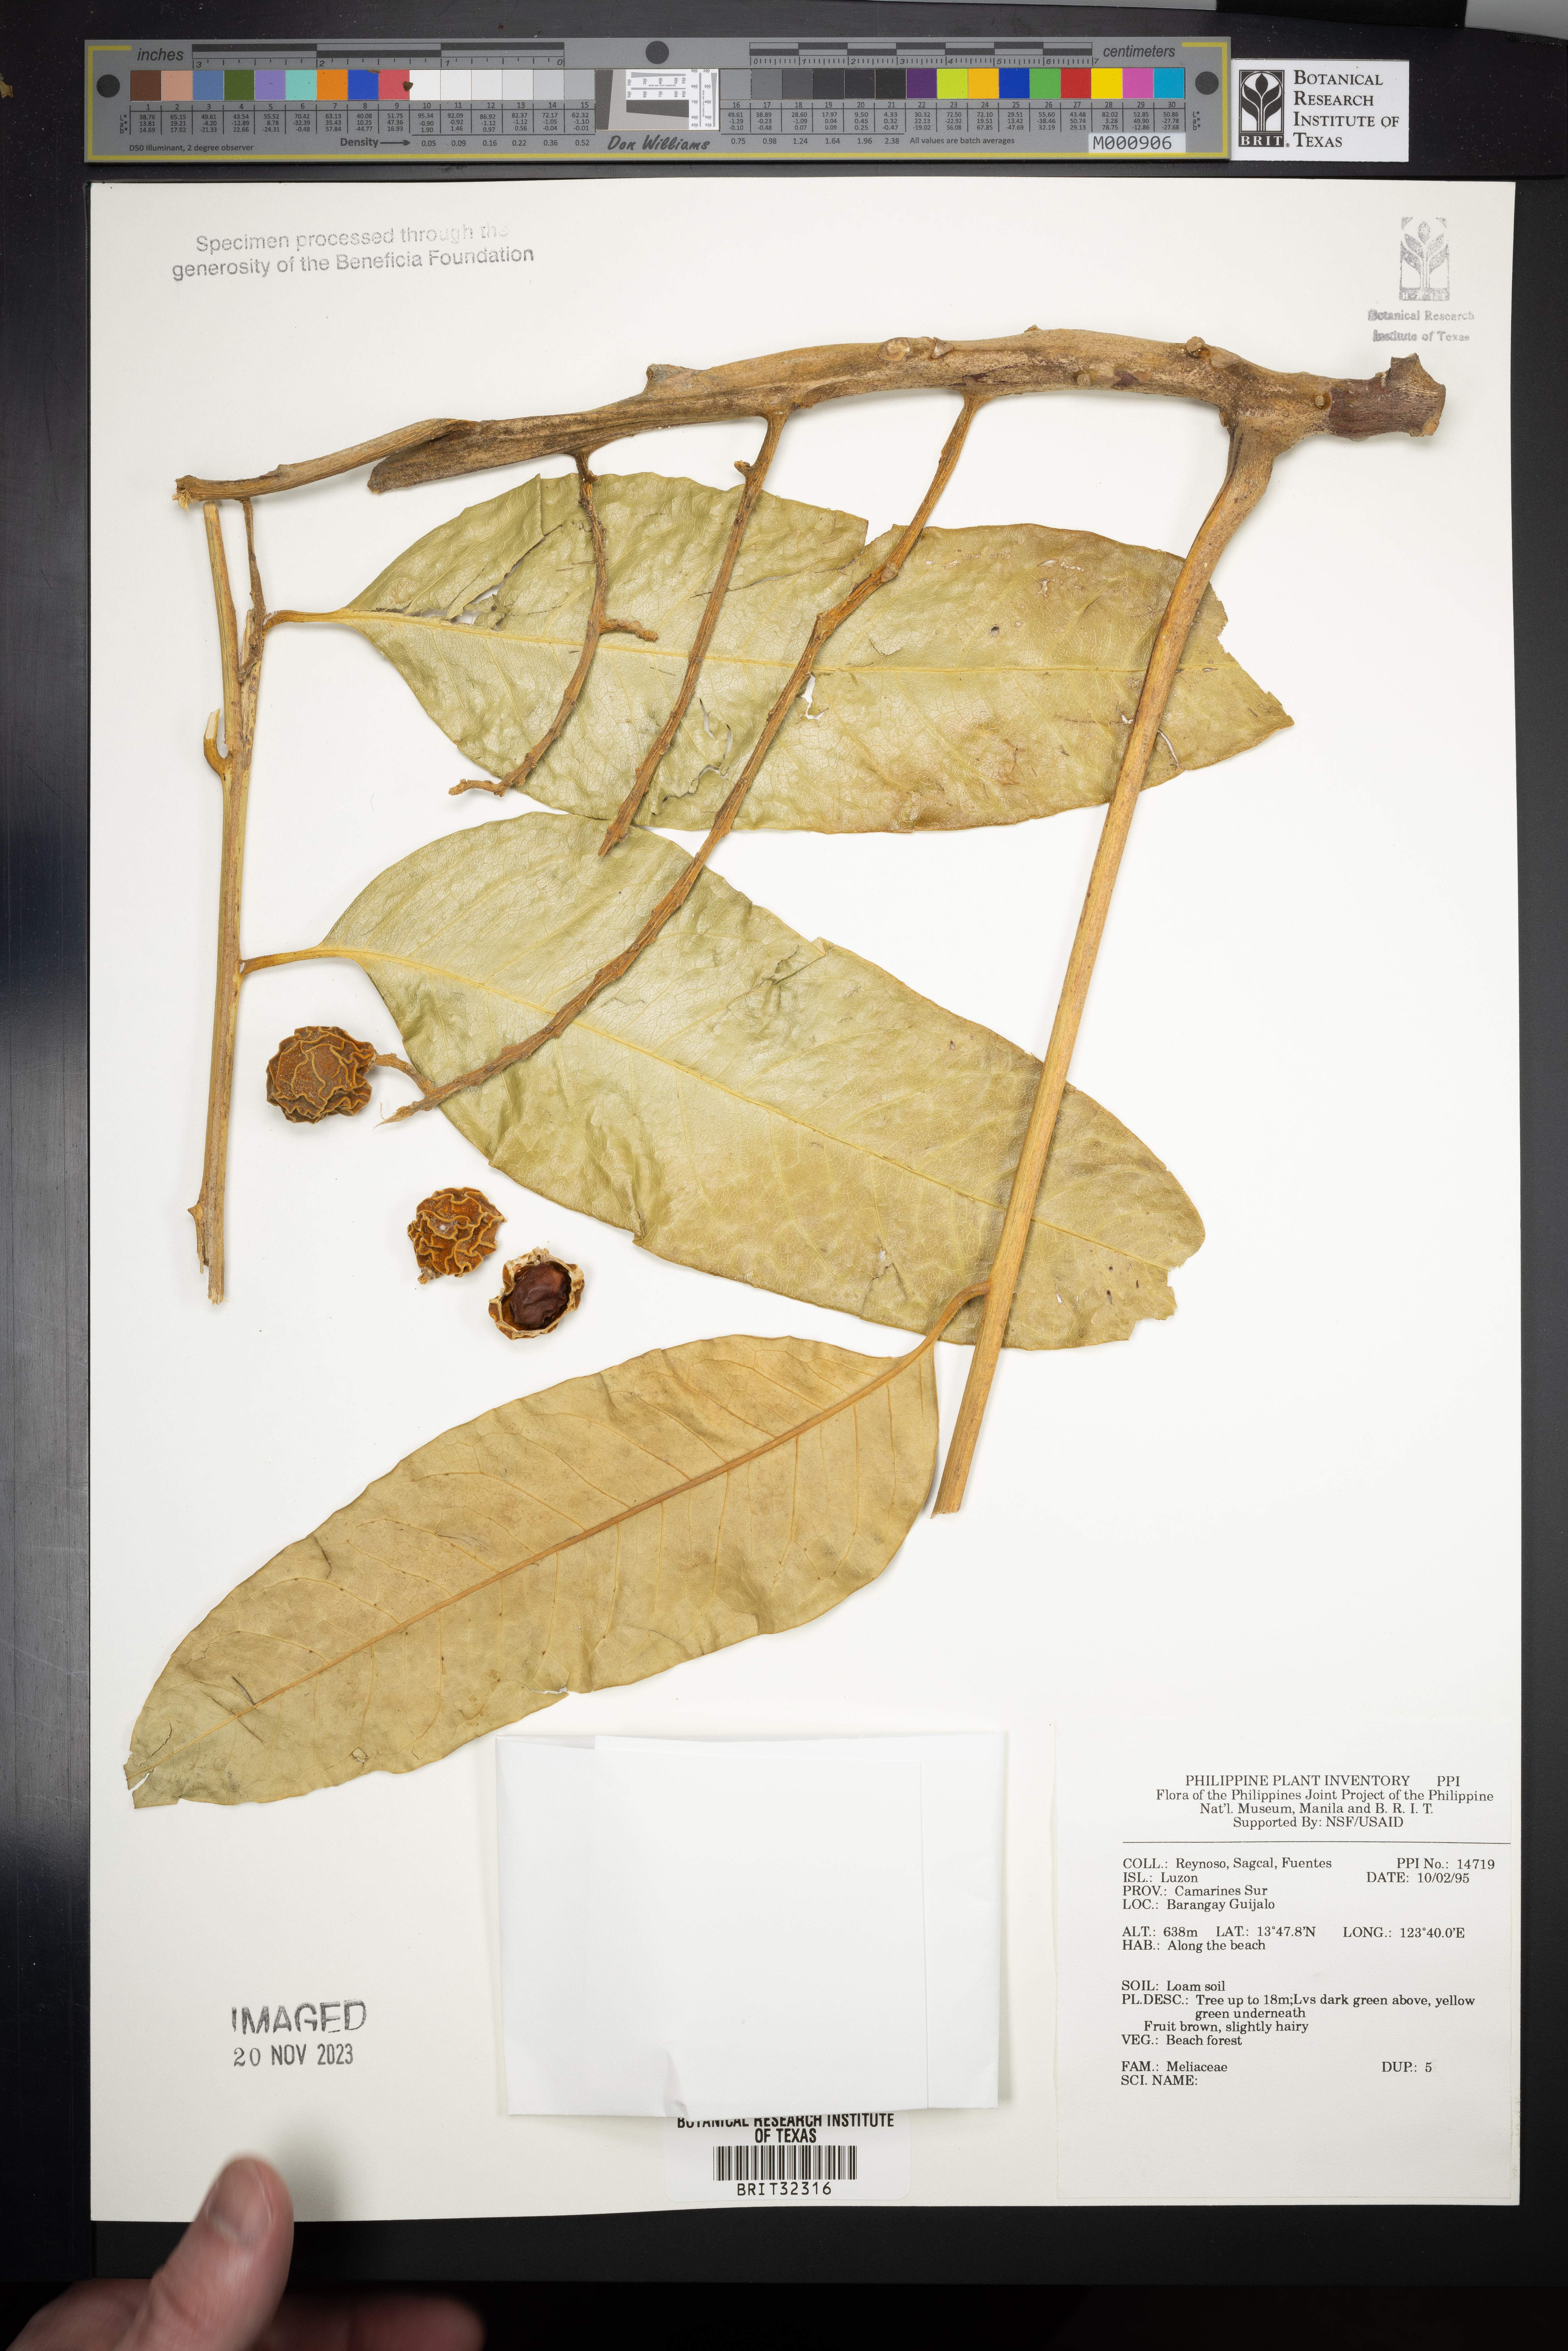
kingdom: Plantae
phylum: Tracheophyta
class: Magnoliopsida
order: Sapindales
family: Meliaceae
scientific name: Meliaceae
